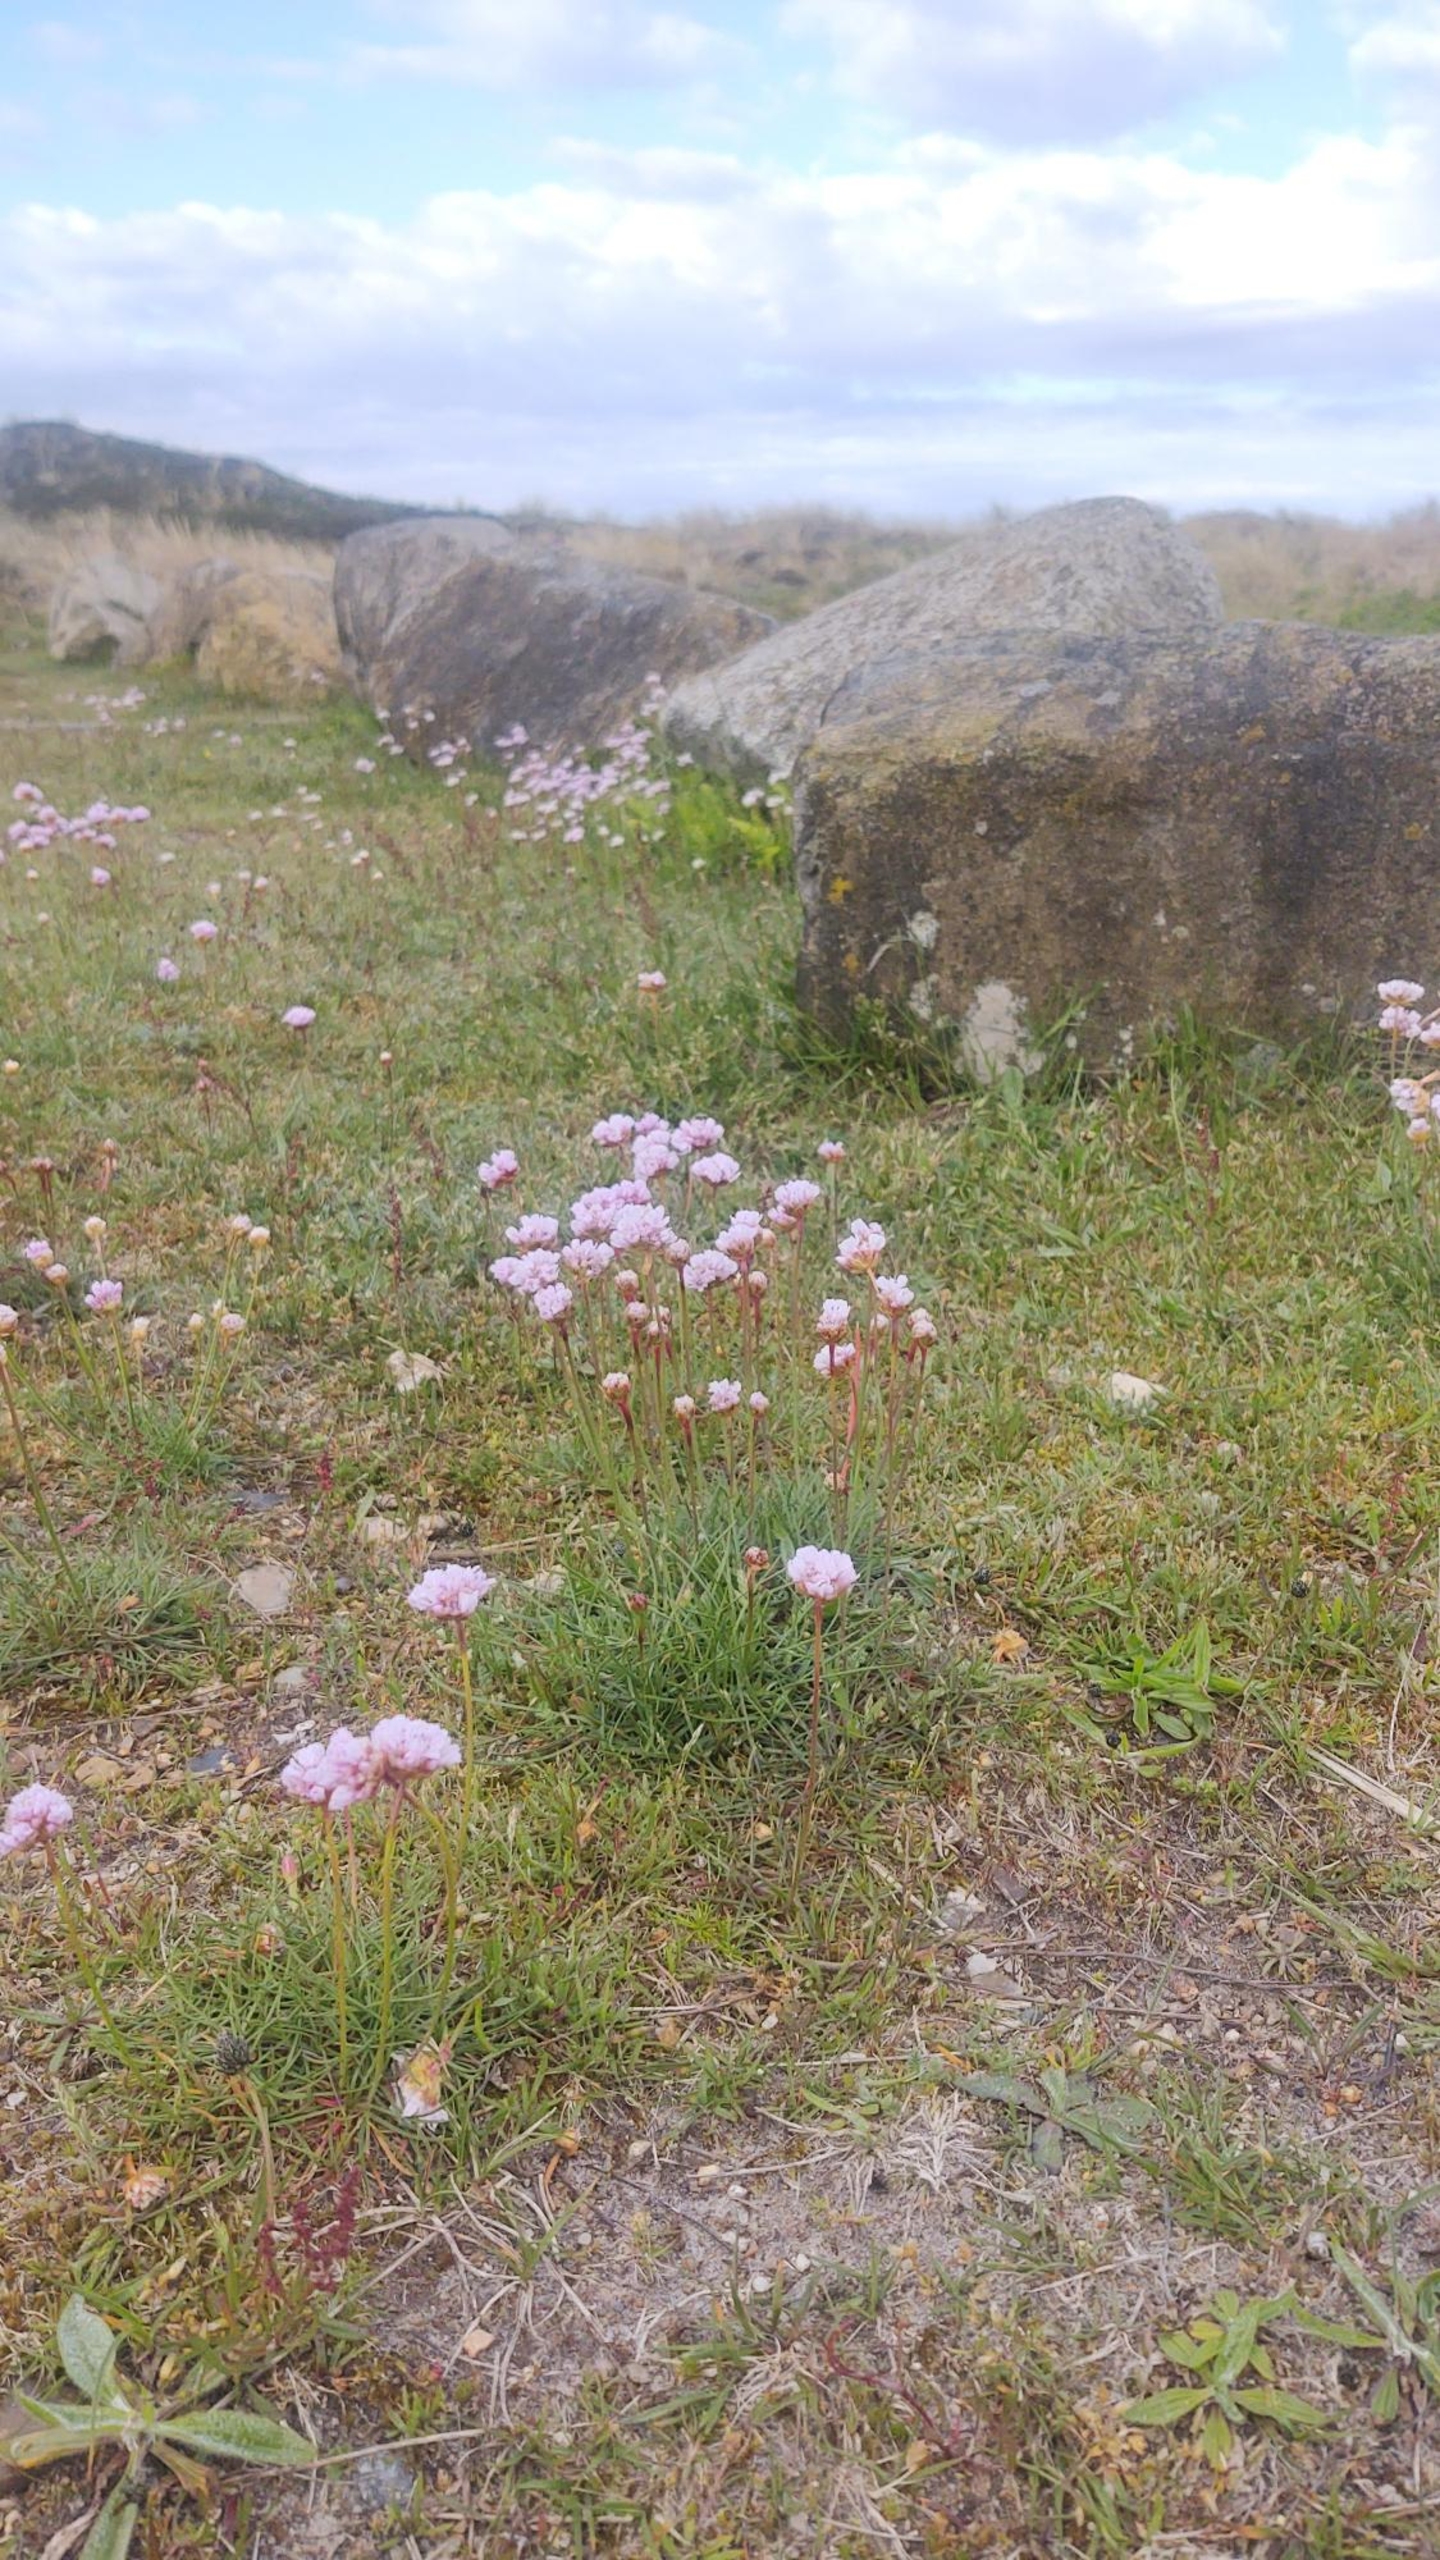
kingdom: Plantae
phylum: Tracheophyta
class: Magnoliopsida
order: Caryophyllales
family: Plumbaginaceae
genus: Armeria
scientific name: Armeria maritima
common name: Engelskgræs
